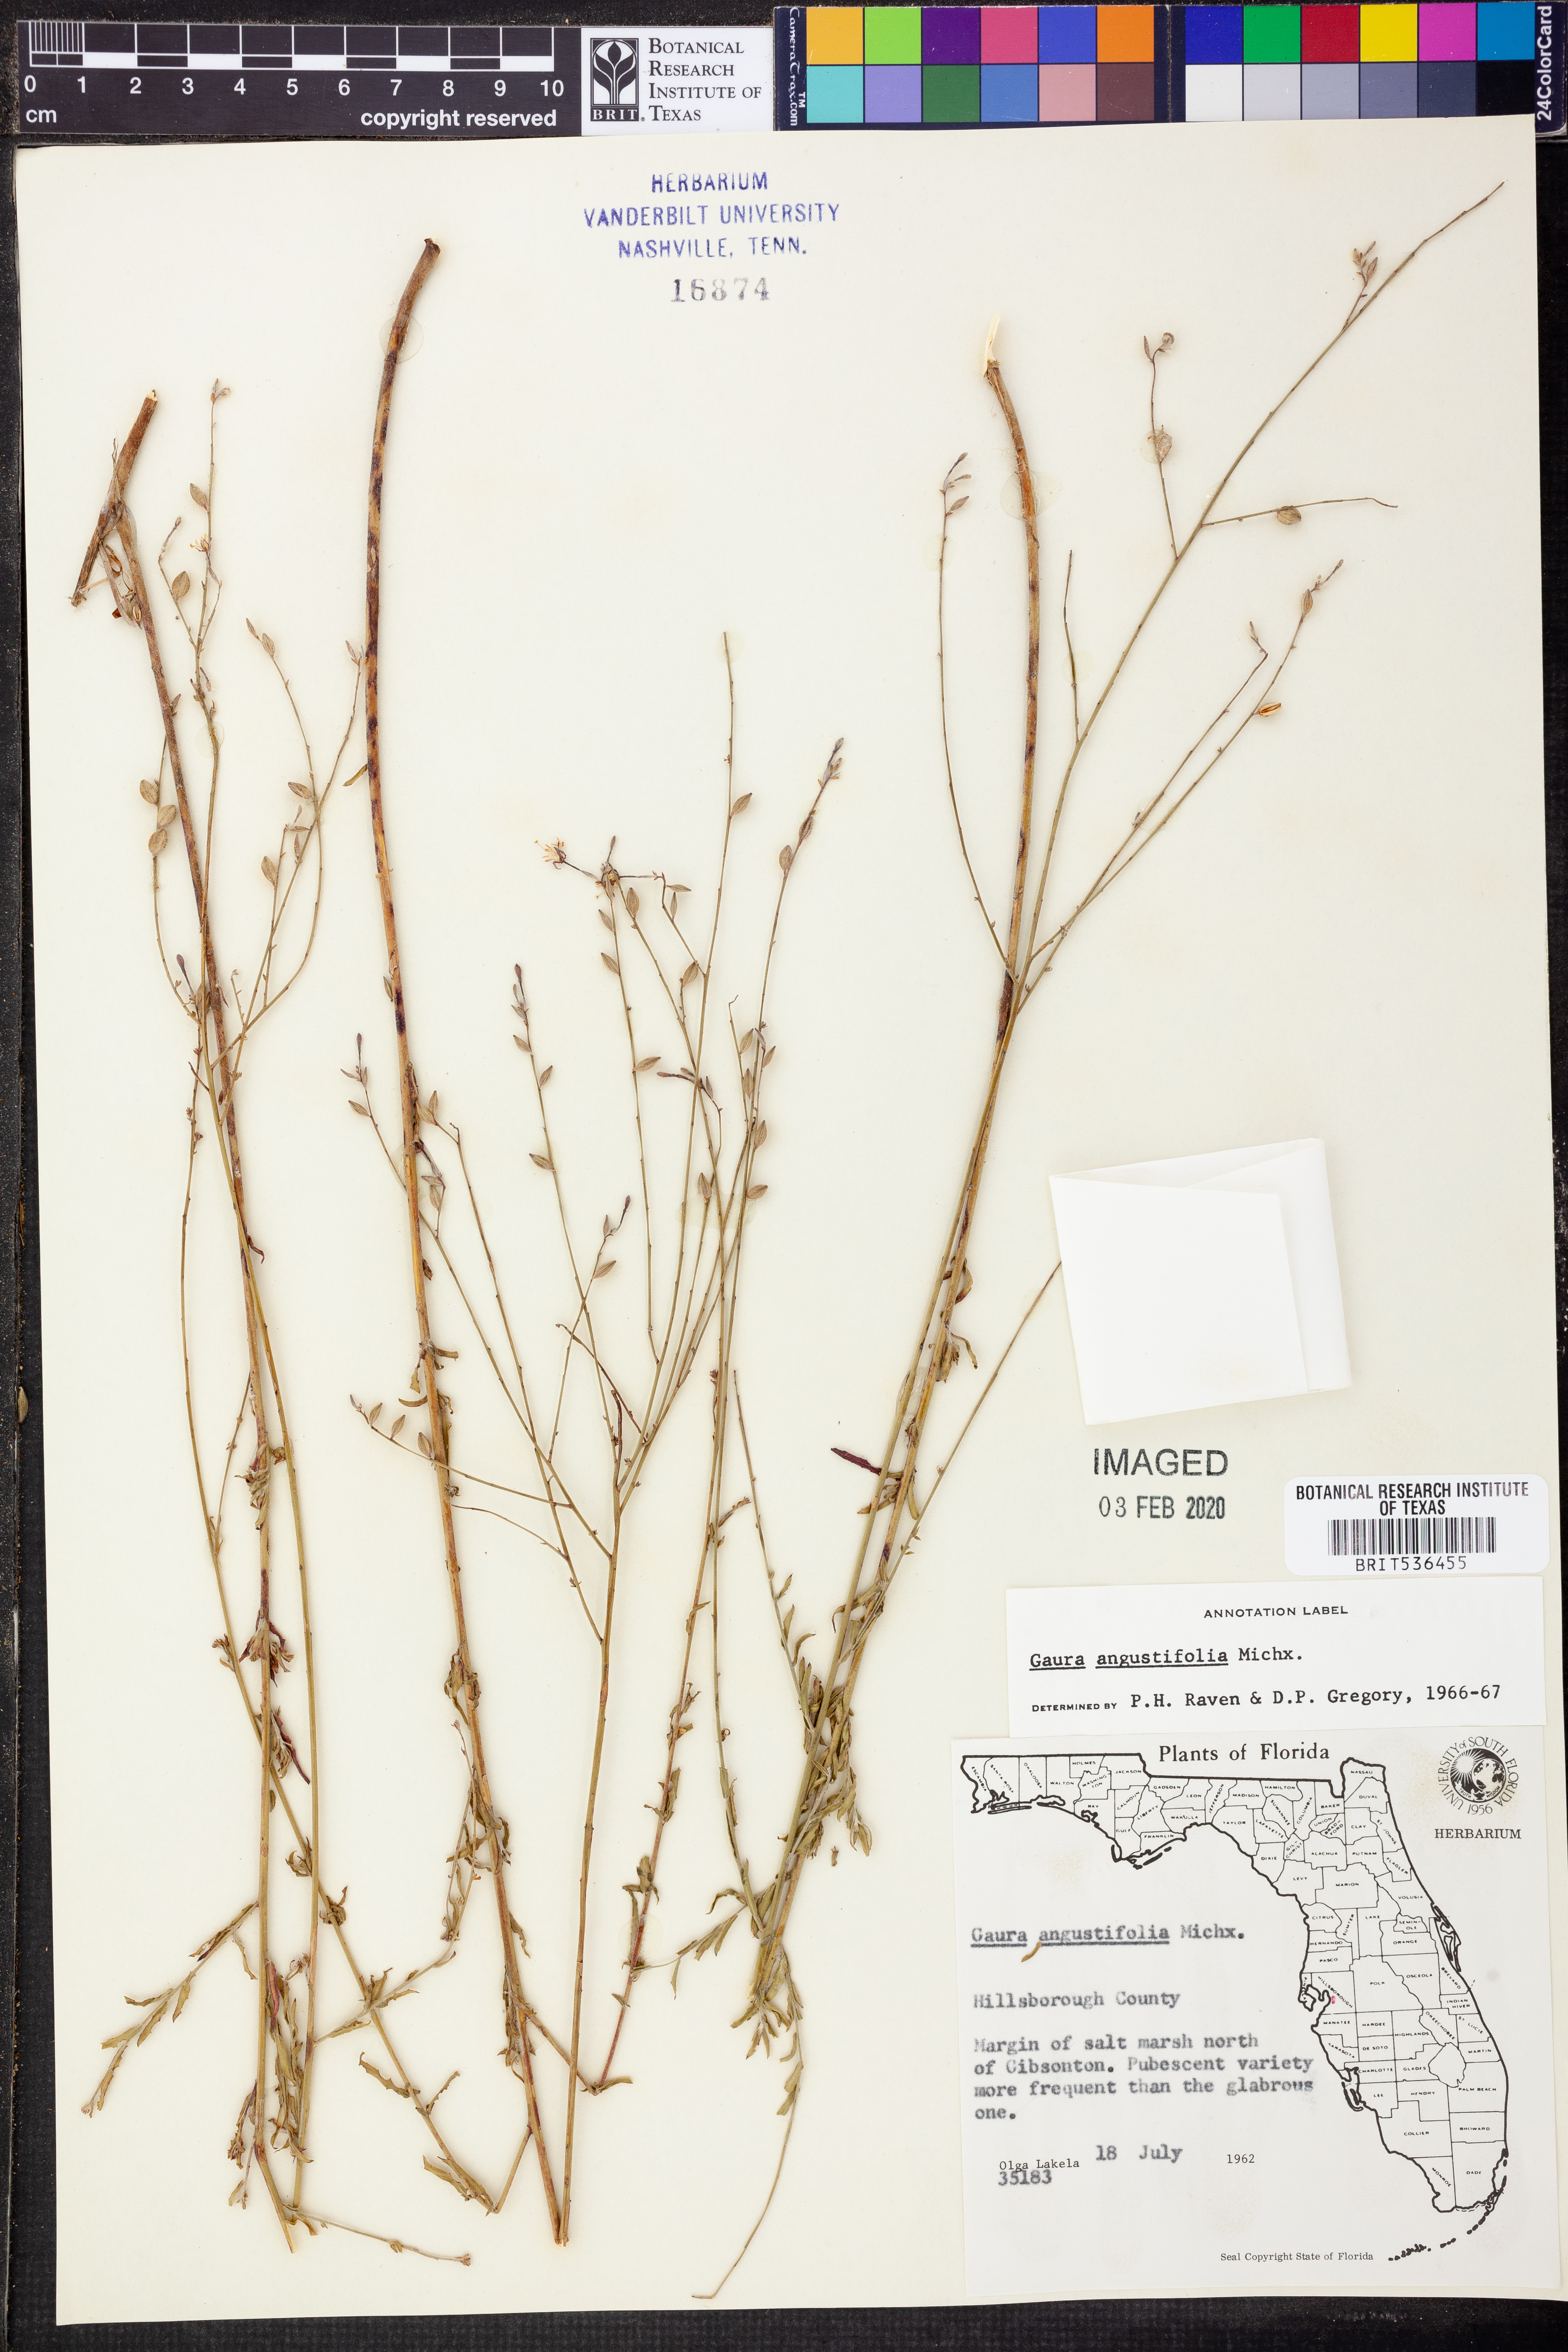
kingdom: Plantae
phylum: Tracheophyta
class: Magnoliopsida
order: Myrtales
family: Onagraceae
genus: Oenothera
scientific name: Oenothera simulans
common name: Southern beeblossom
